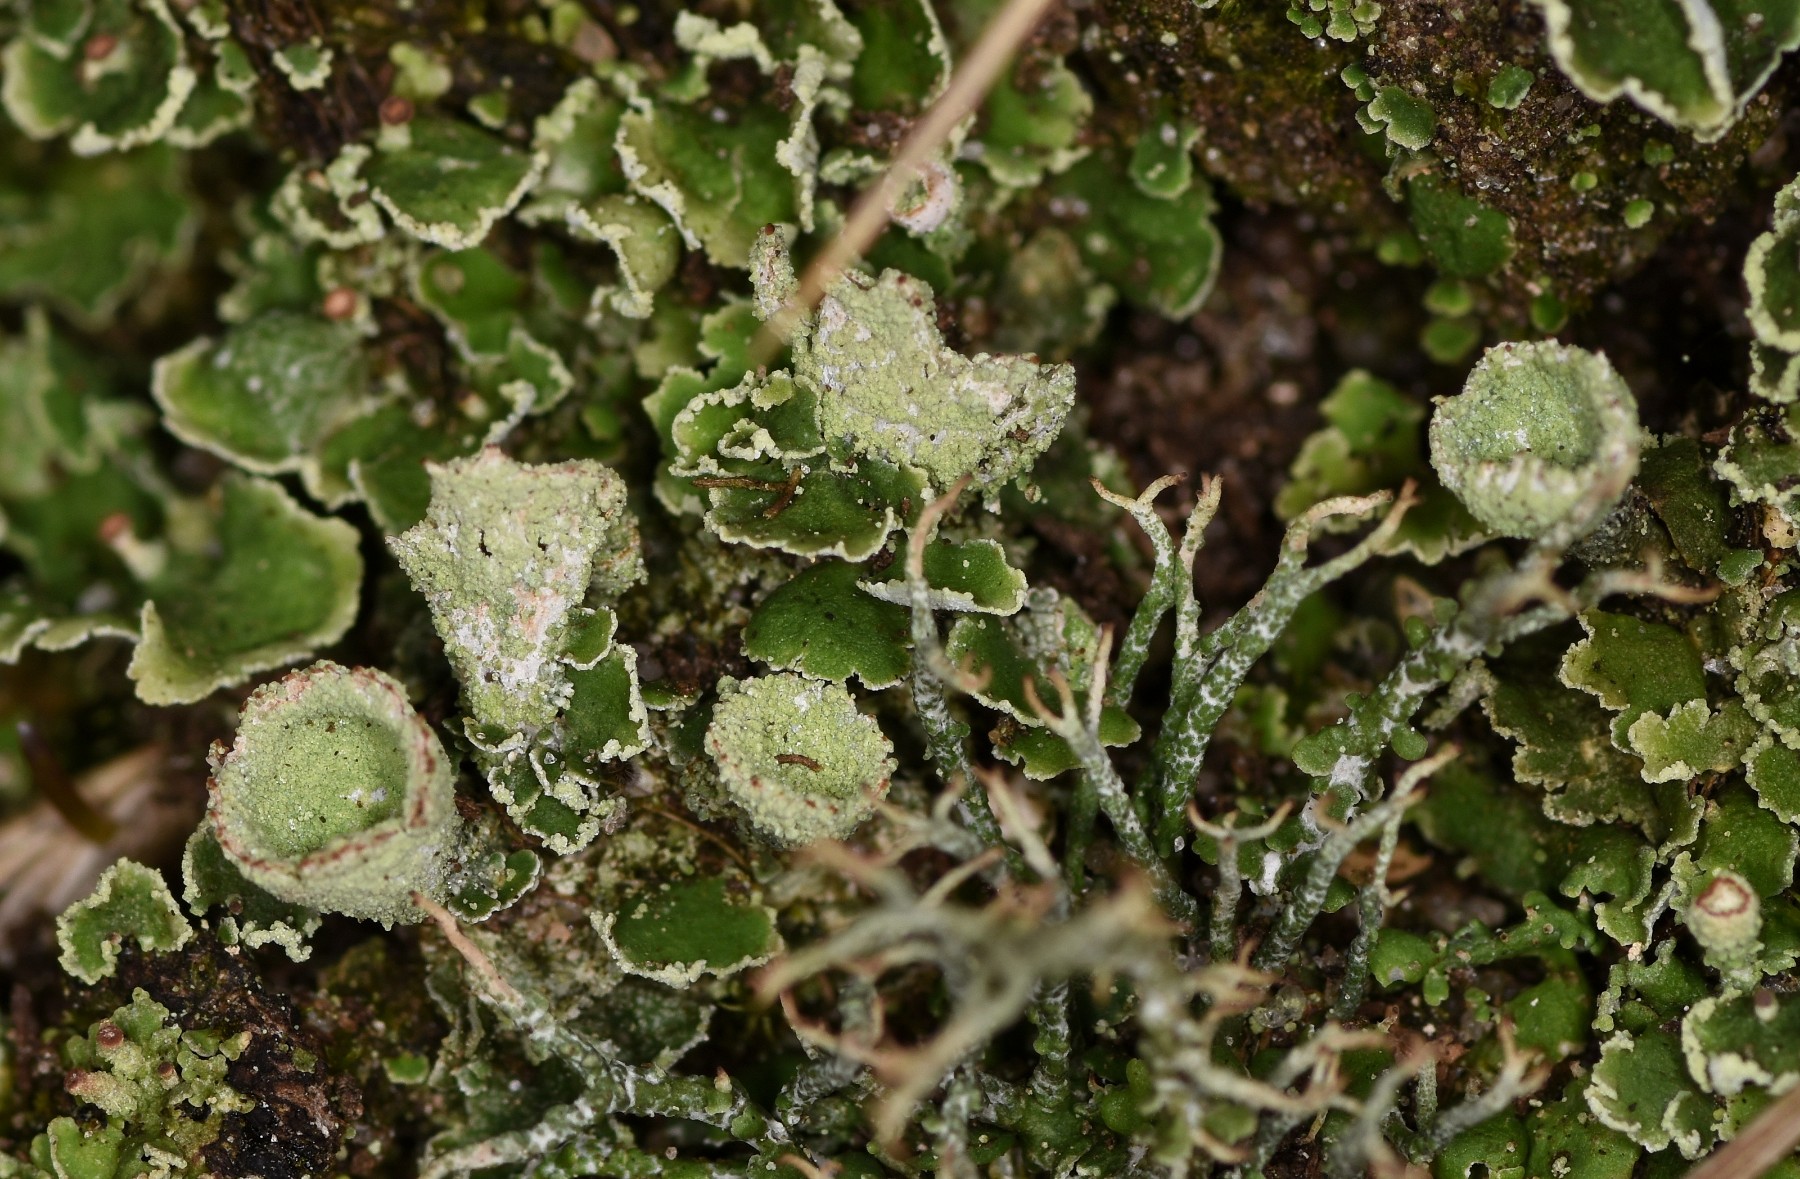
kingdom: Fungi
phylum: Ascomycota
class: Lecanoromycetes
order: Lecanorales
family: Cladoniaceae
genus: Cladonia
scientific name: Cladonia humilis
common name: lav bægerlav
